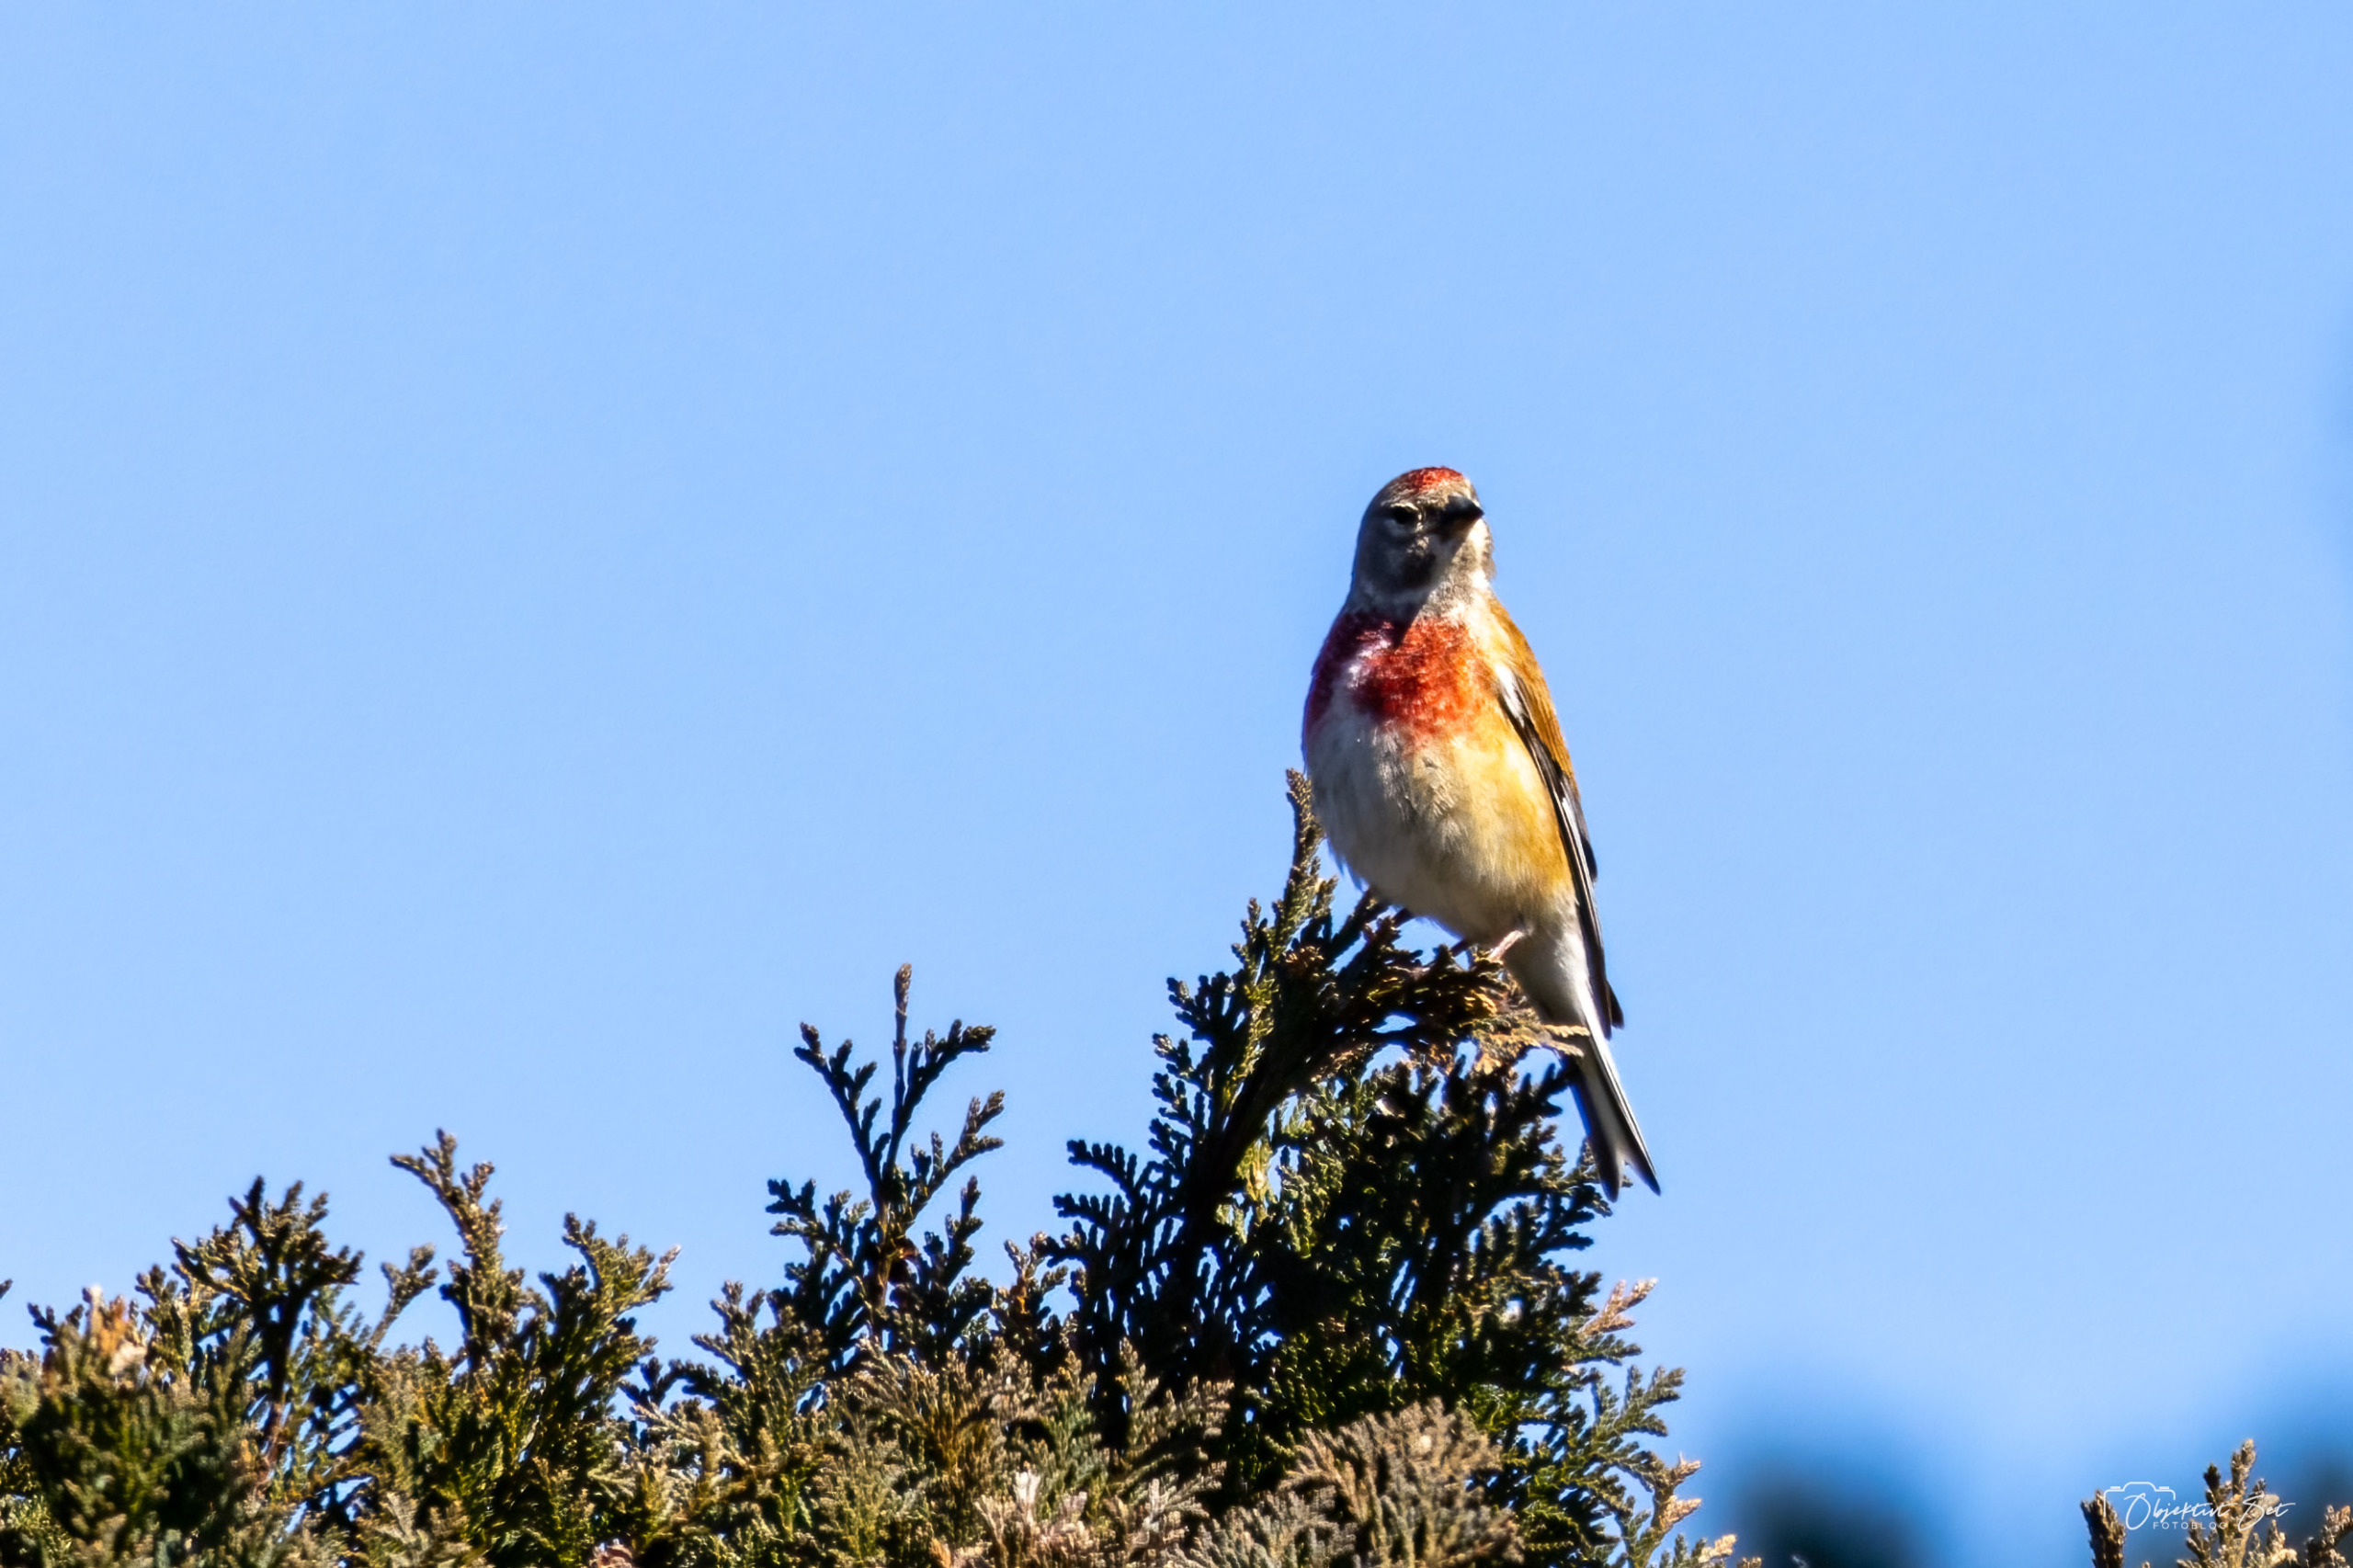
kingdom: Animalia
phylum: Chordata
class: Aves
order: Passeriformes
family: Fringillidae
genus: Linaria
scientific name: Linaria cannabina
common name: Tornirisk
